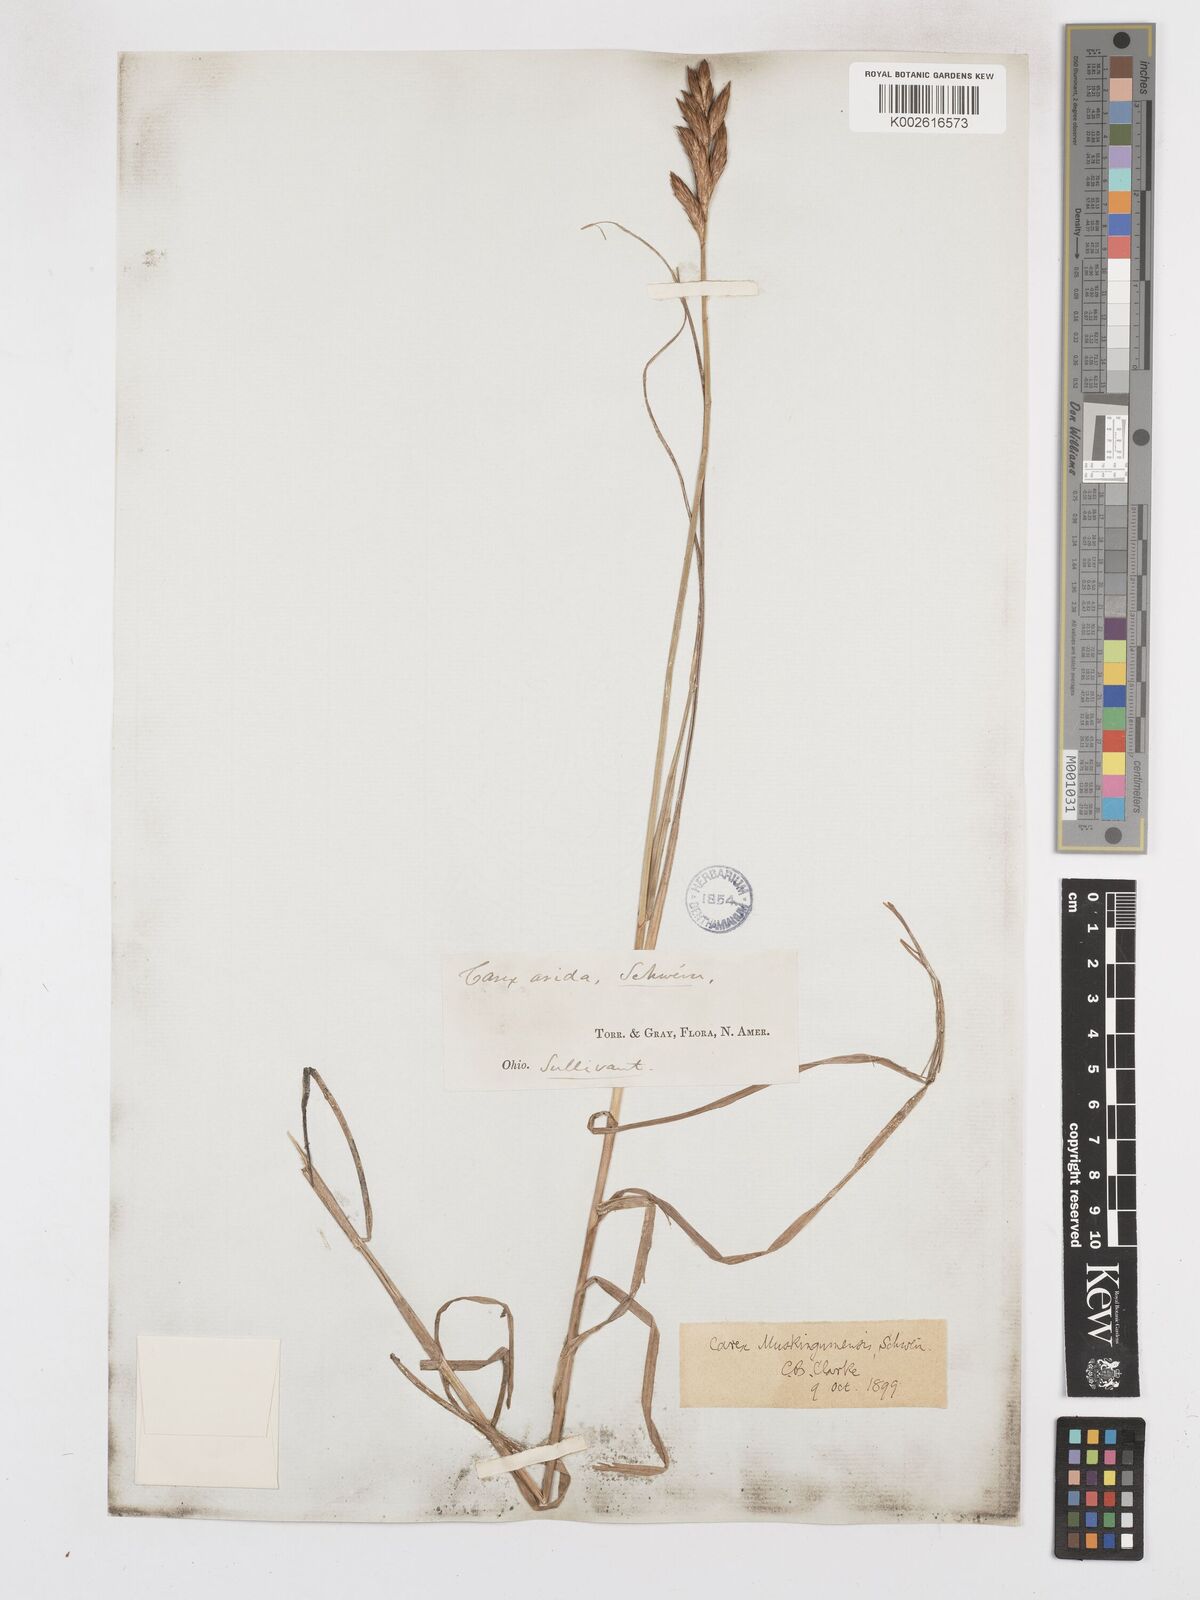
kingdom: Plantae
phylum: Tracheophyta
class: Liliopsida
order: Poales
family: Cyperaceae
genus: Carex
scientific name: Carex muskingumensis
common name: Muskingum sedge
